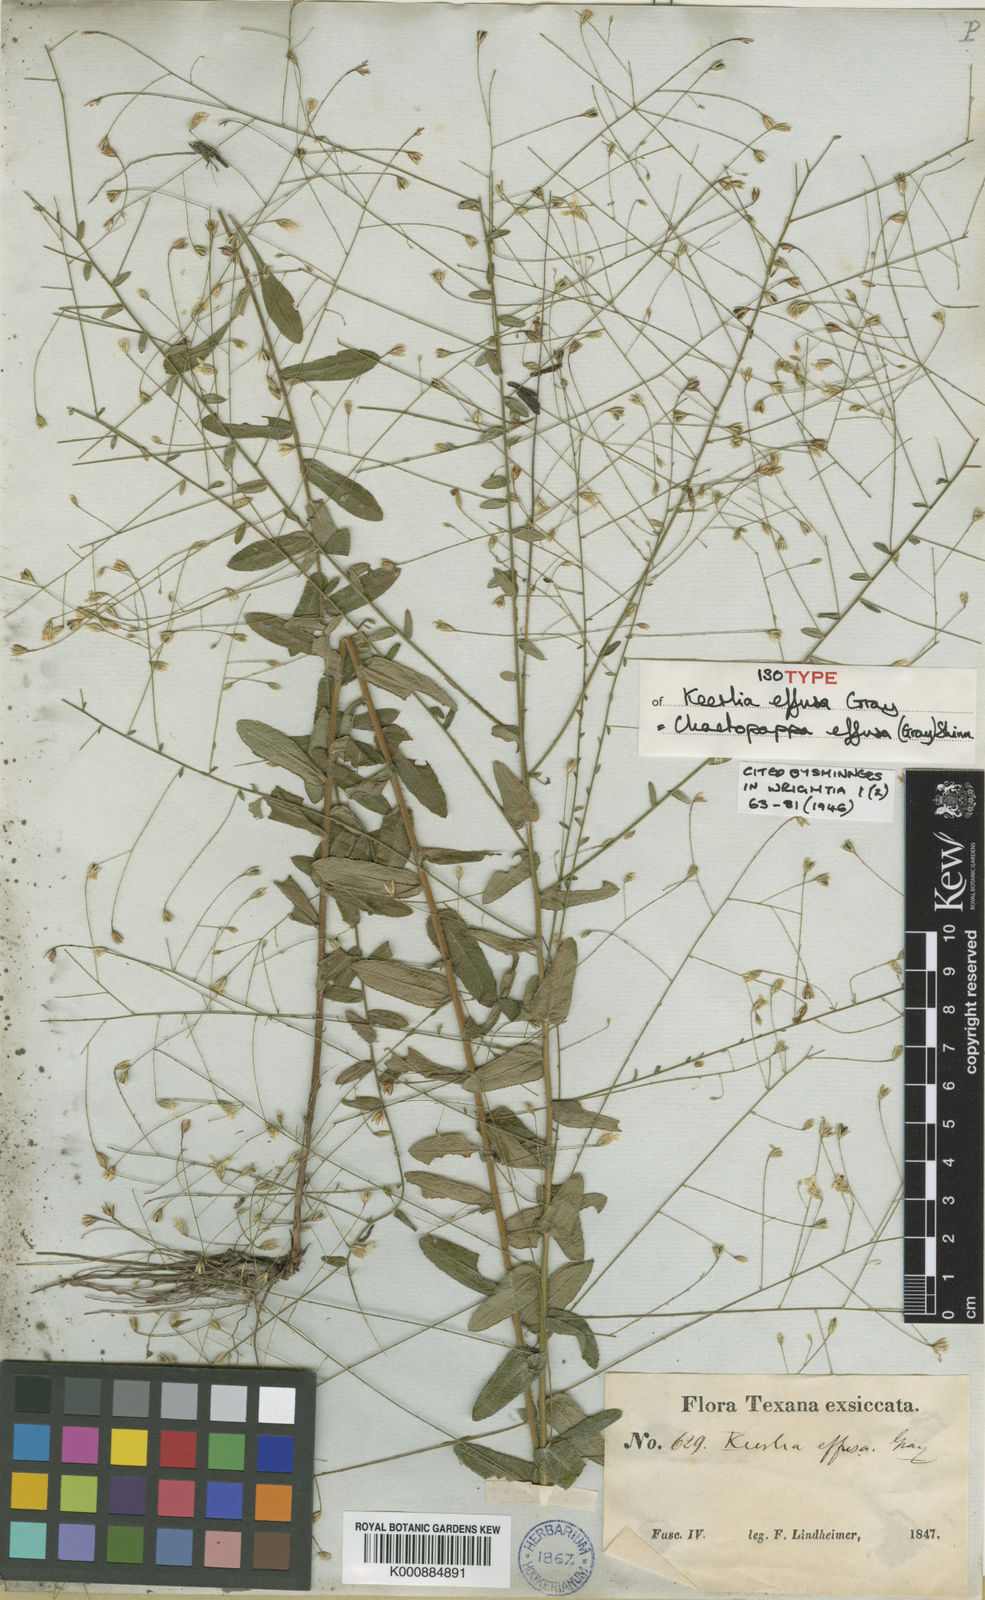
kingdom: Plantae
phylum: Tracheophyta
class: Magnoliopsida
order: Asterales
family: Asteraceae
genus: Chaetopappa
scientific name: Chaetopappa effusa
